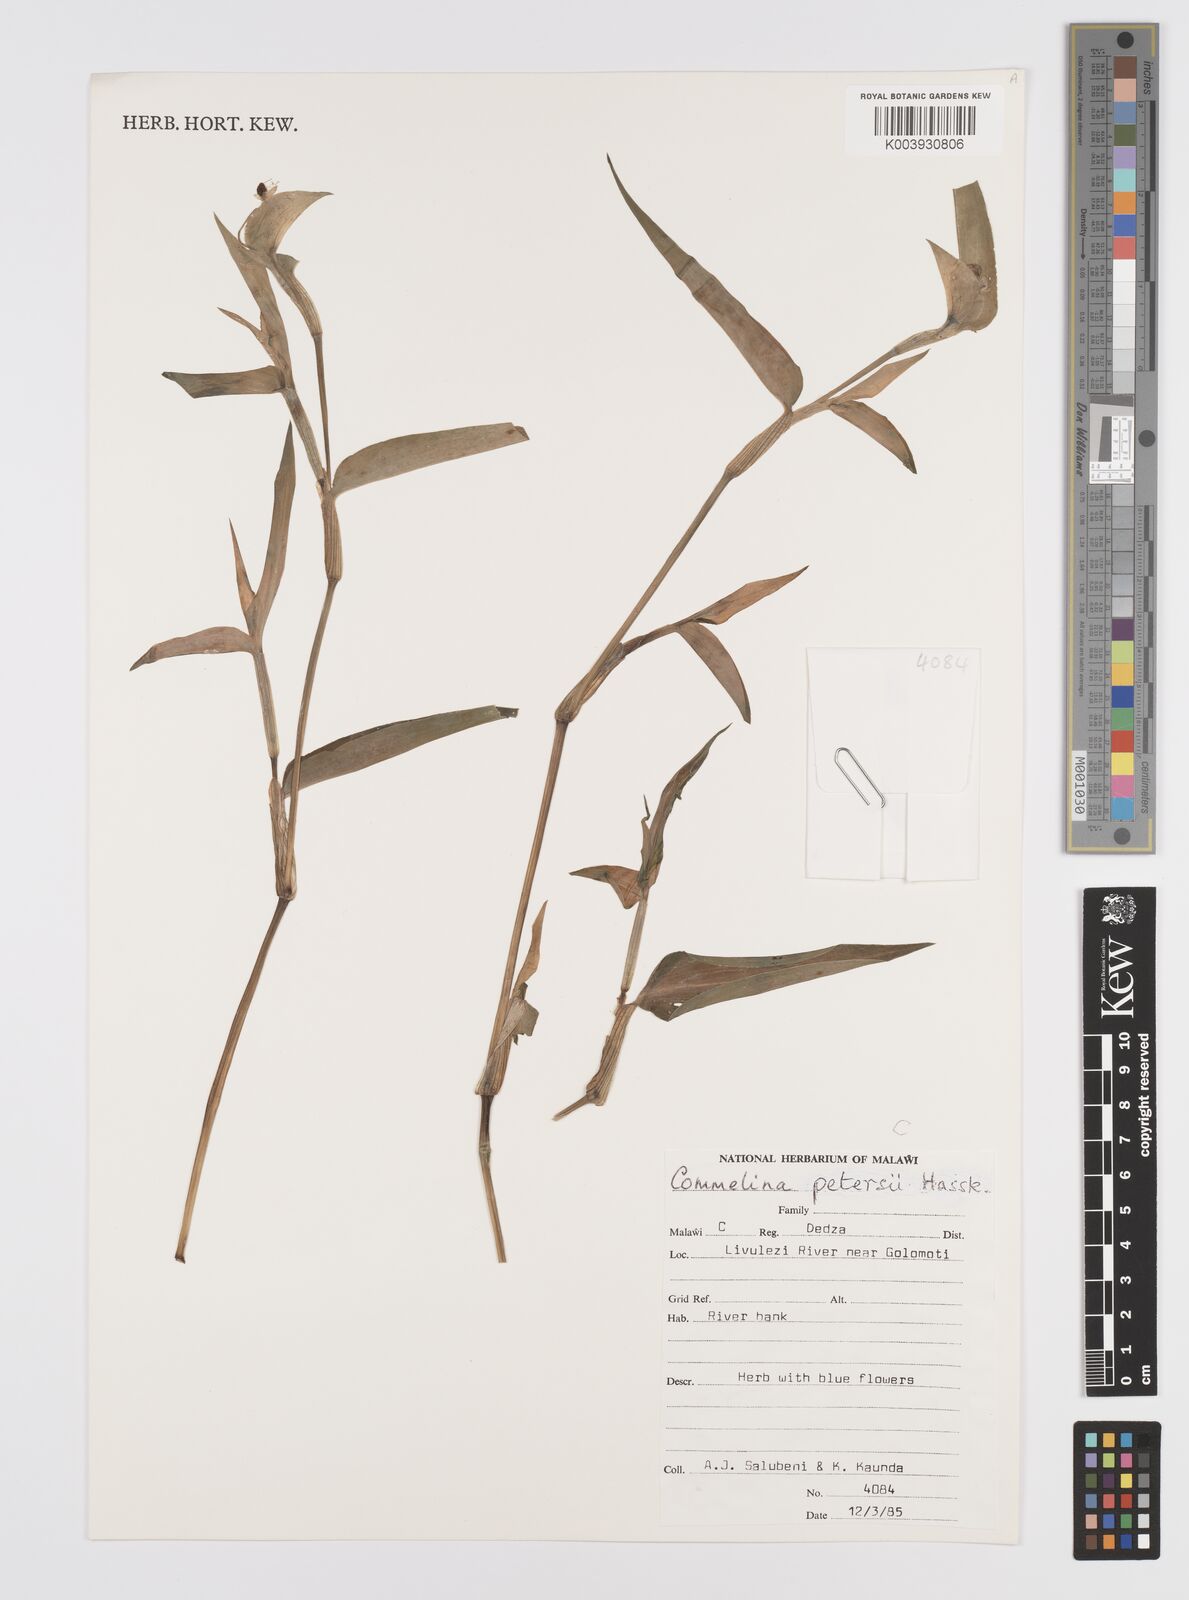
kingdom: Plantae
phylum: Tracheophyta
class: Liliopsida
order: Commelinales
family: Commelinaceae
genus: Commelina
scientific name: Commelina petersii
